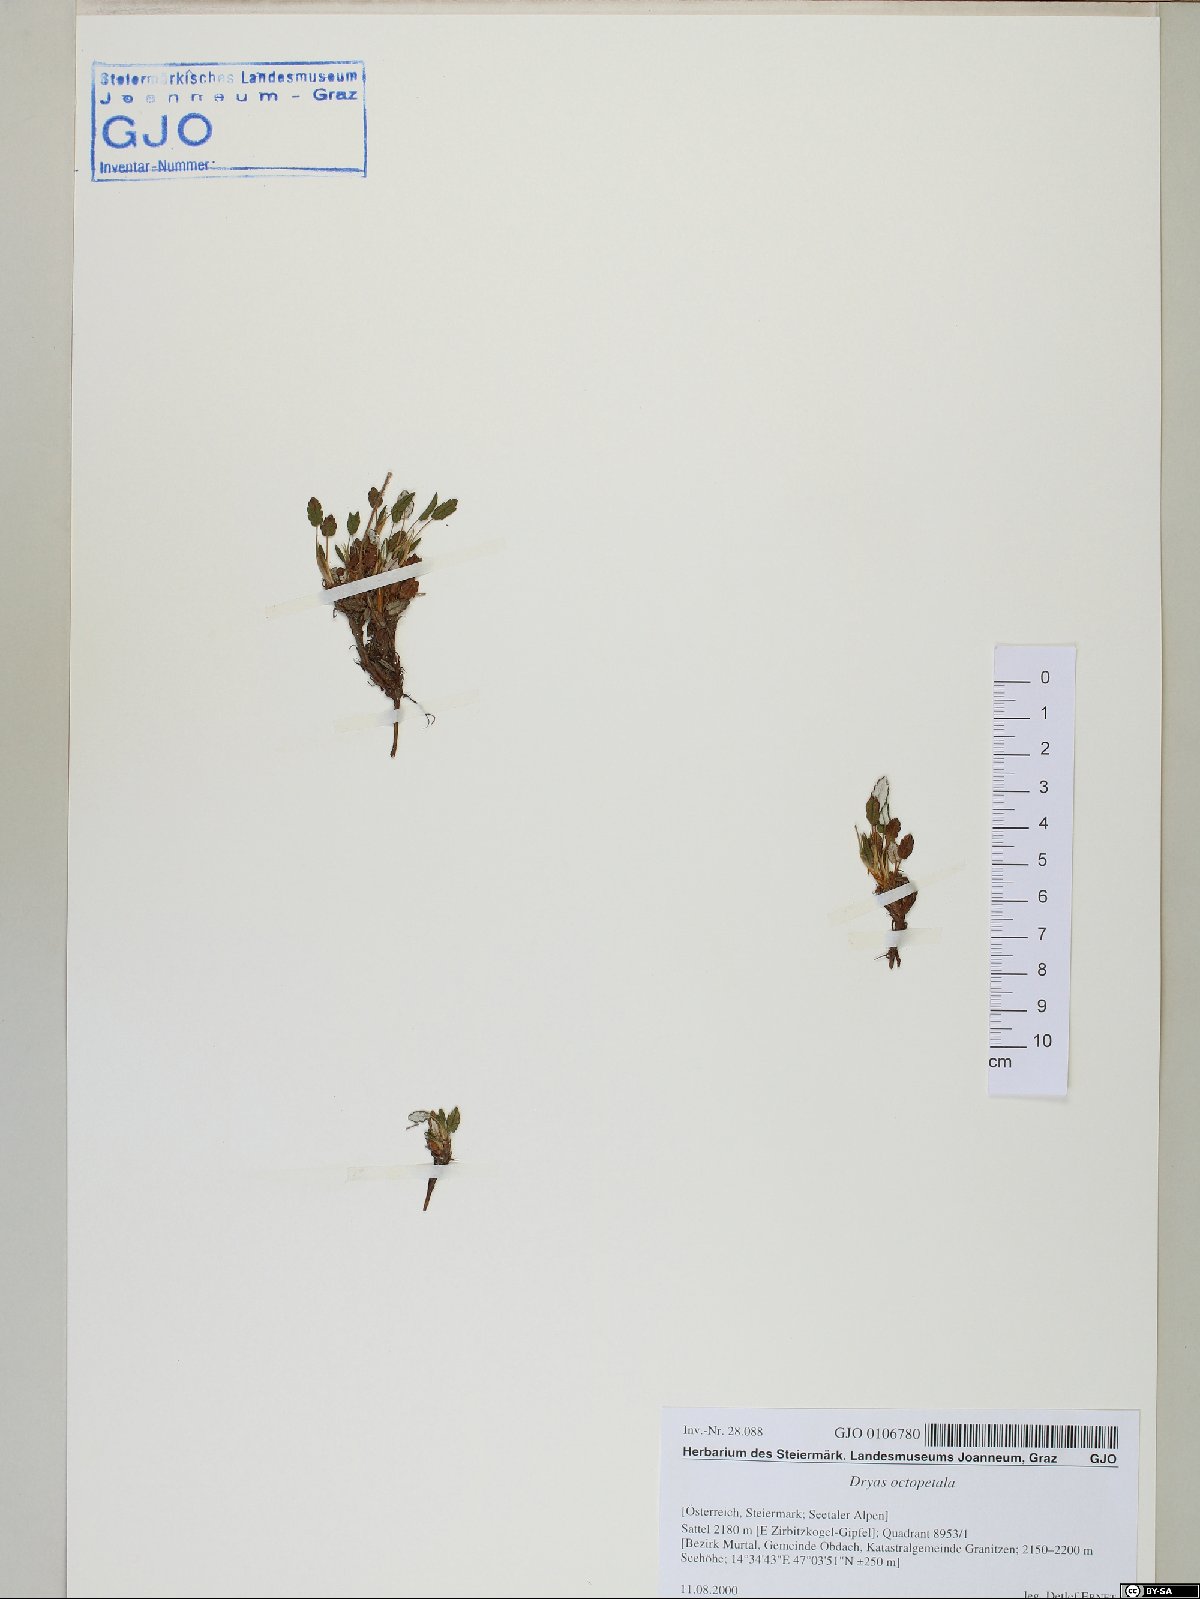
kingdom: Plantae
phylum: Tracheophyta
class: Magnoliopsida
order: Rosales
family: Rosaceae
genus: Dryas
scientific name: Dryas octopetala
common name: Eight-petal mountain-avens
